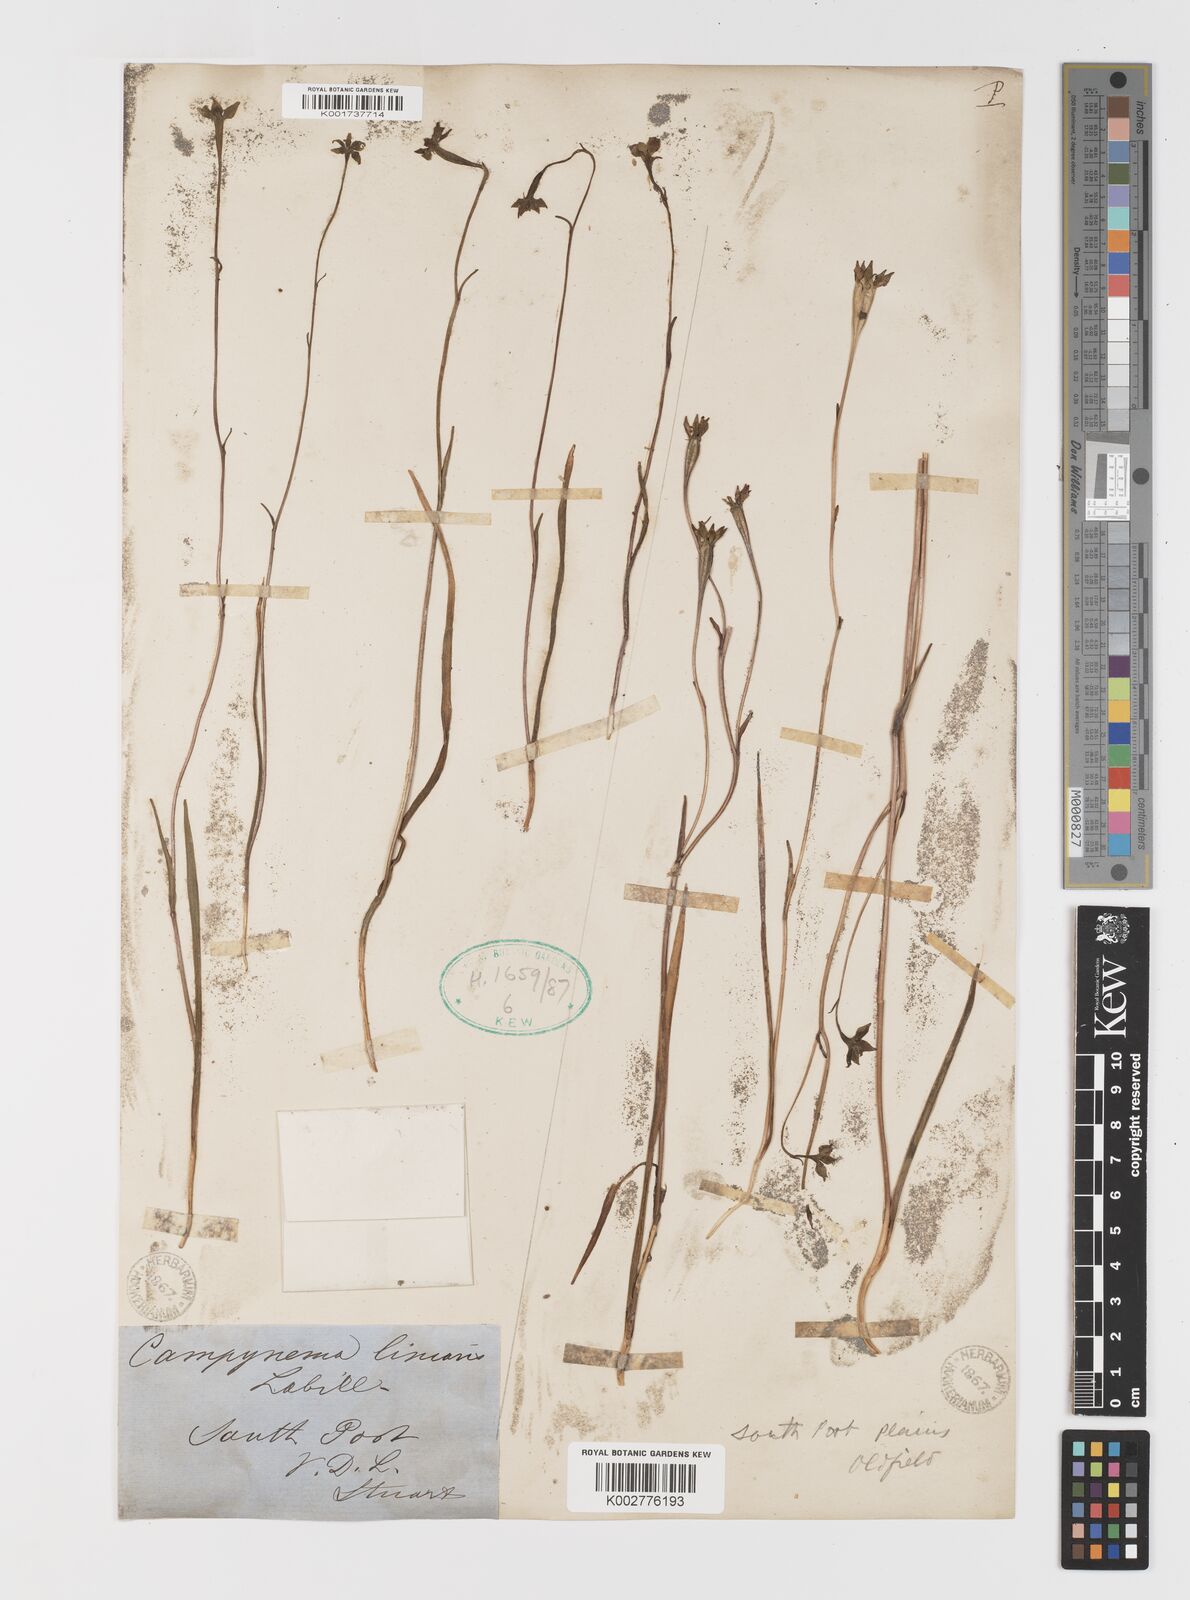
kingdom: Plantae
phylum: Tracheophyta
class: Liliopsida
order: Liliales
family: Campynemataceae
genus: Campynema
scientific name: Campynema lineare
